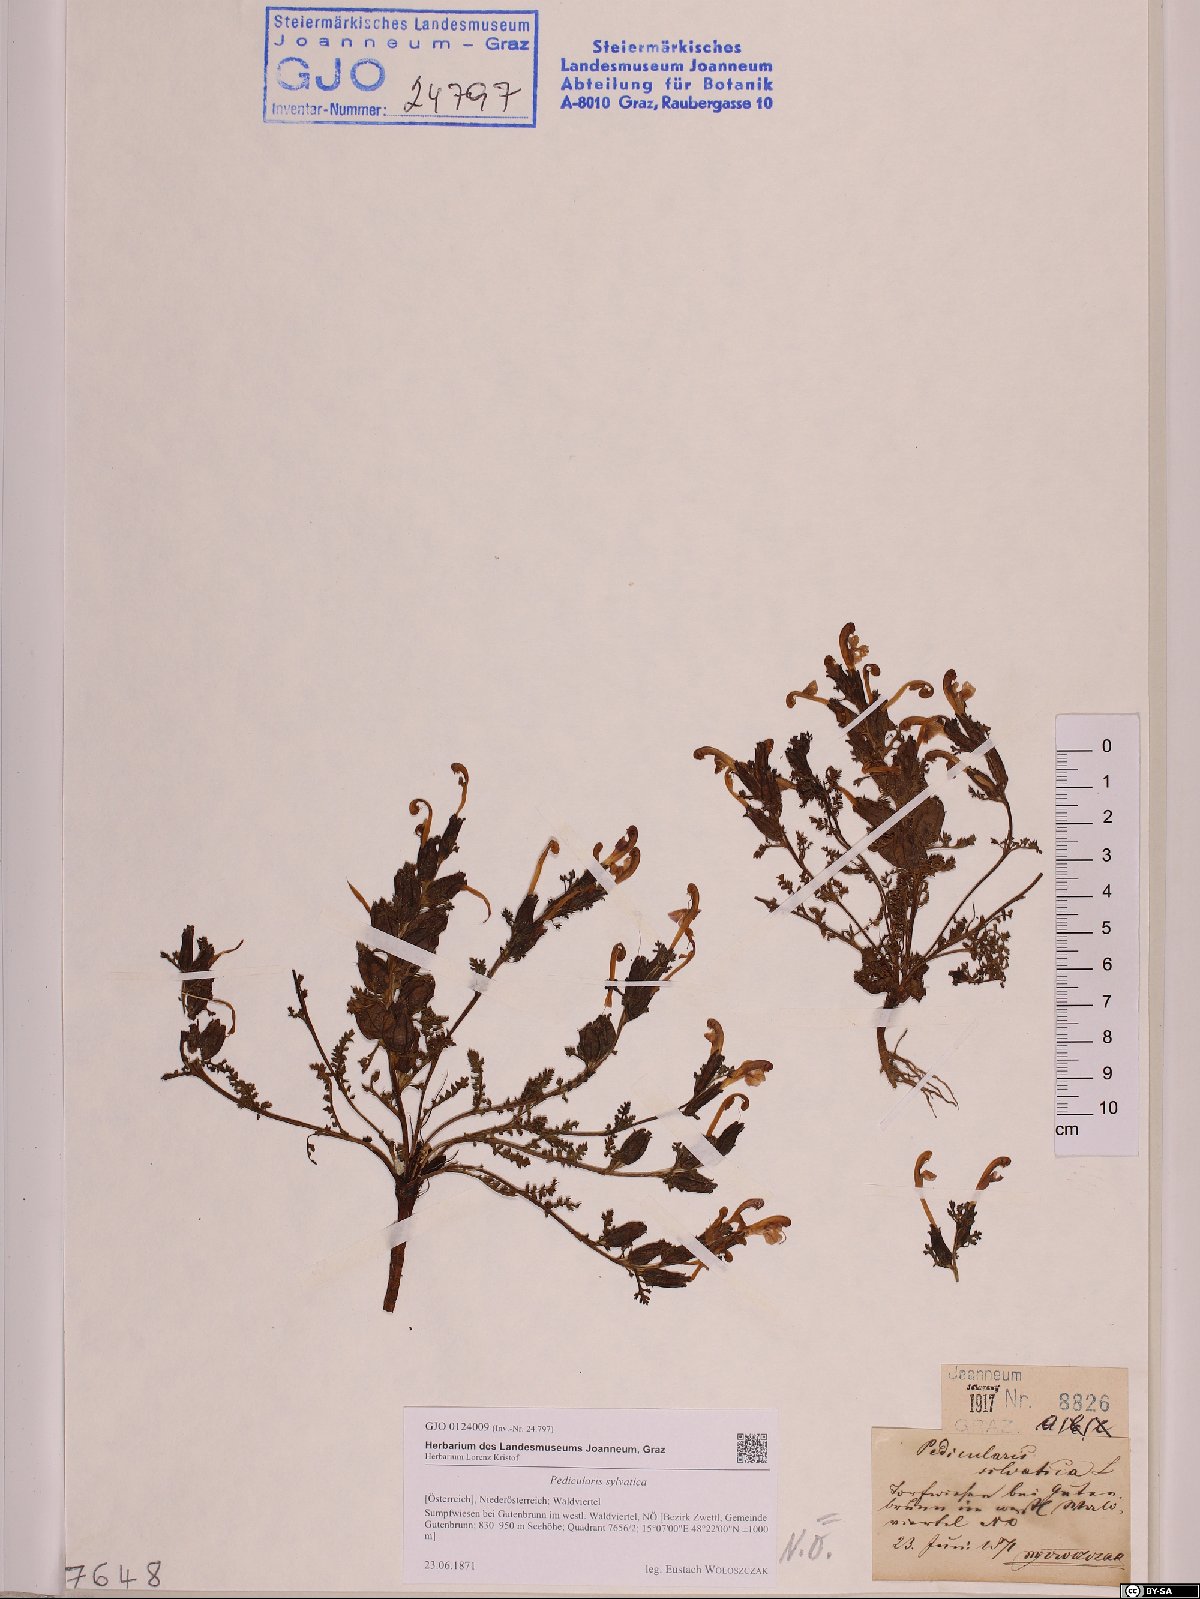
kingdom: Plantae
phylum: Tracheophyta
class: Magnoliopsida
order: Lamiales
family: Orobanchaceae
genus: Pedicularis
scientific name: Pedicularis sylvatica
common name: Lousewort
